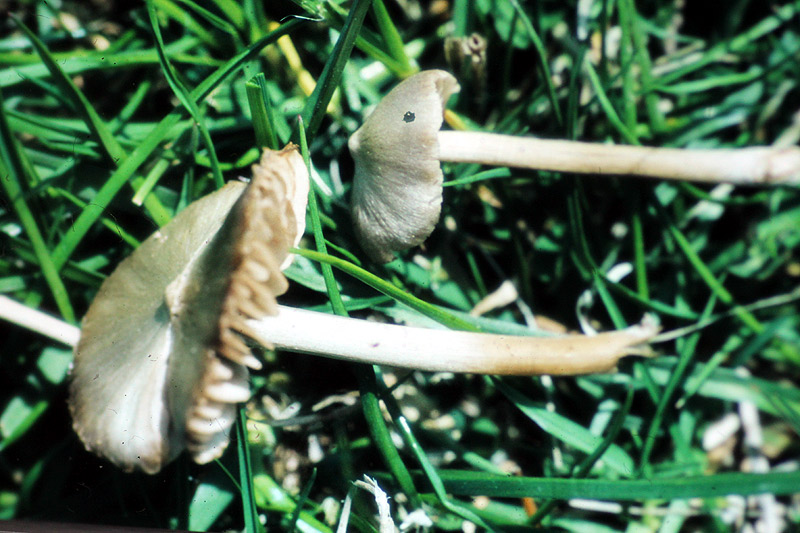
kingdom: Fungi
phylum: Basidiomycota
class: Agaricomycetes
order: Agaricales
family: Entolomataceae
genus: Entoloma
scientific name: Entoloma ventricosum
